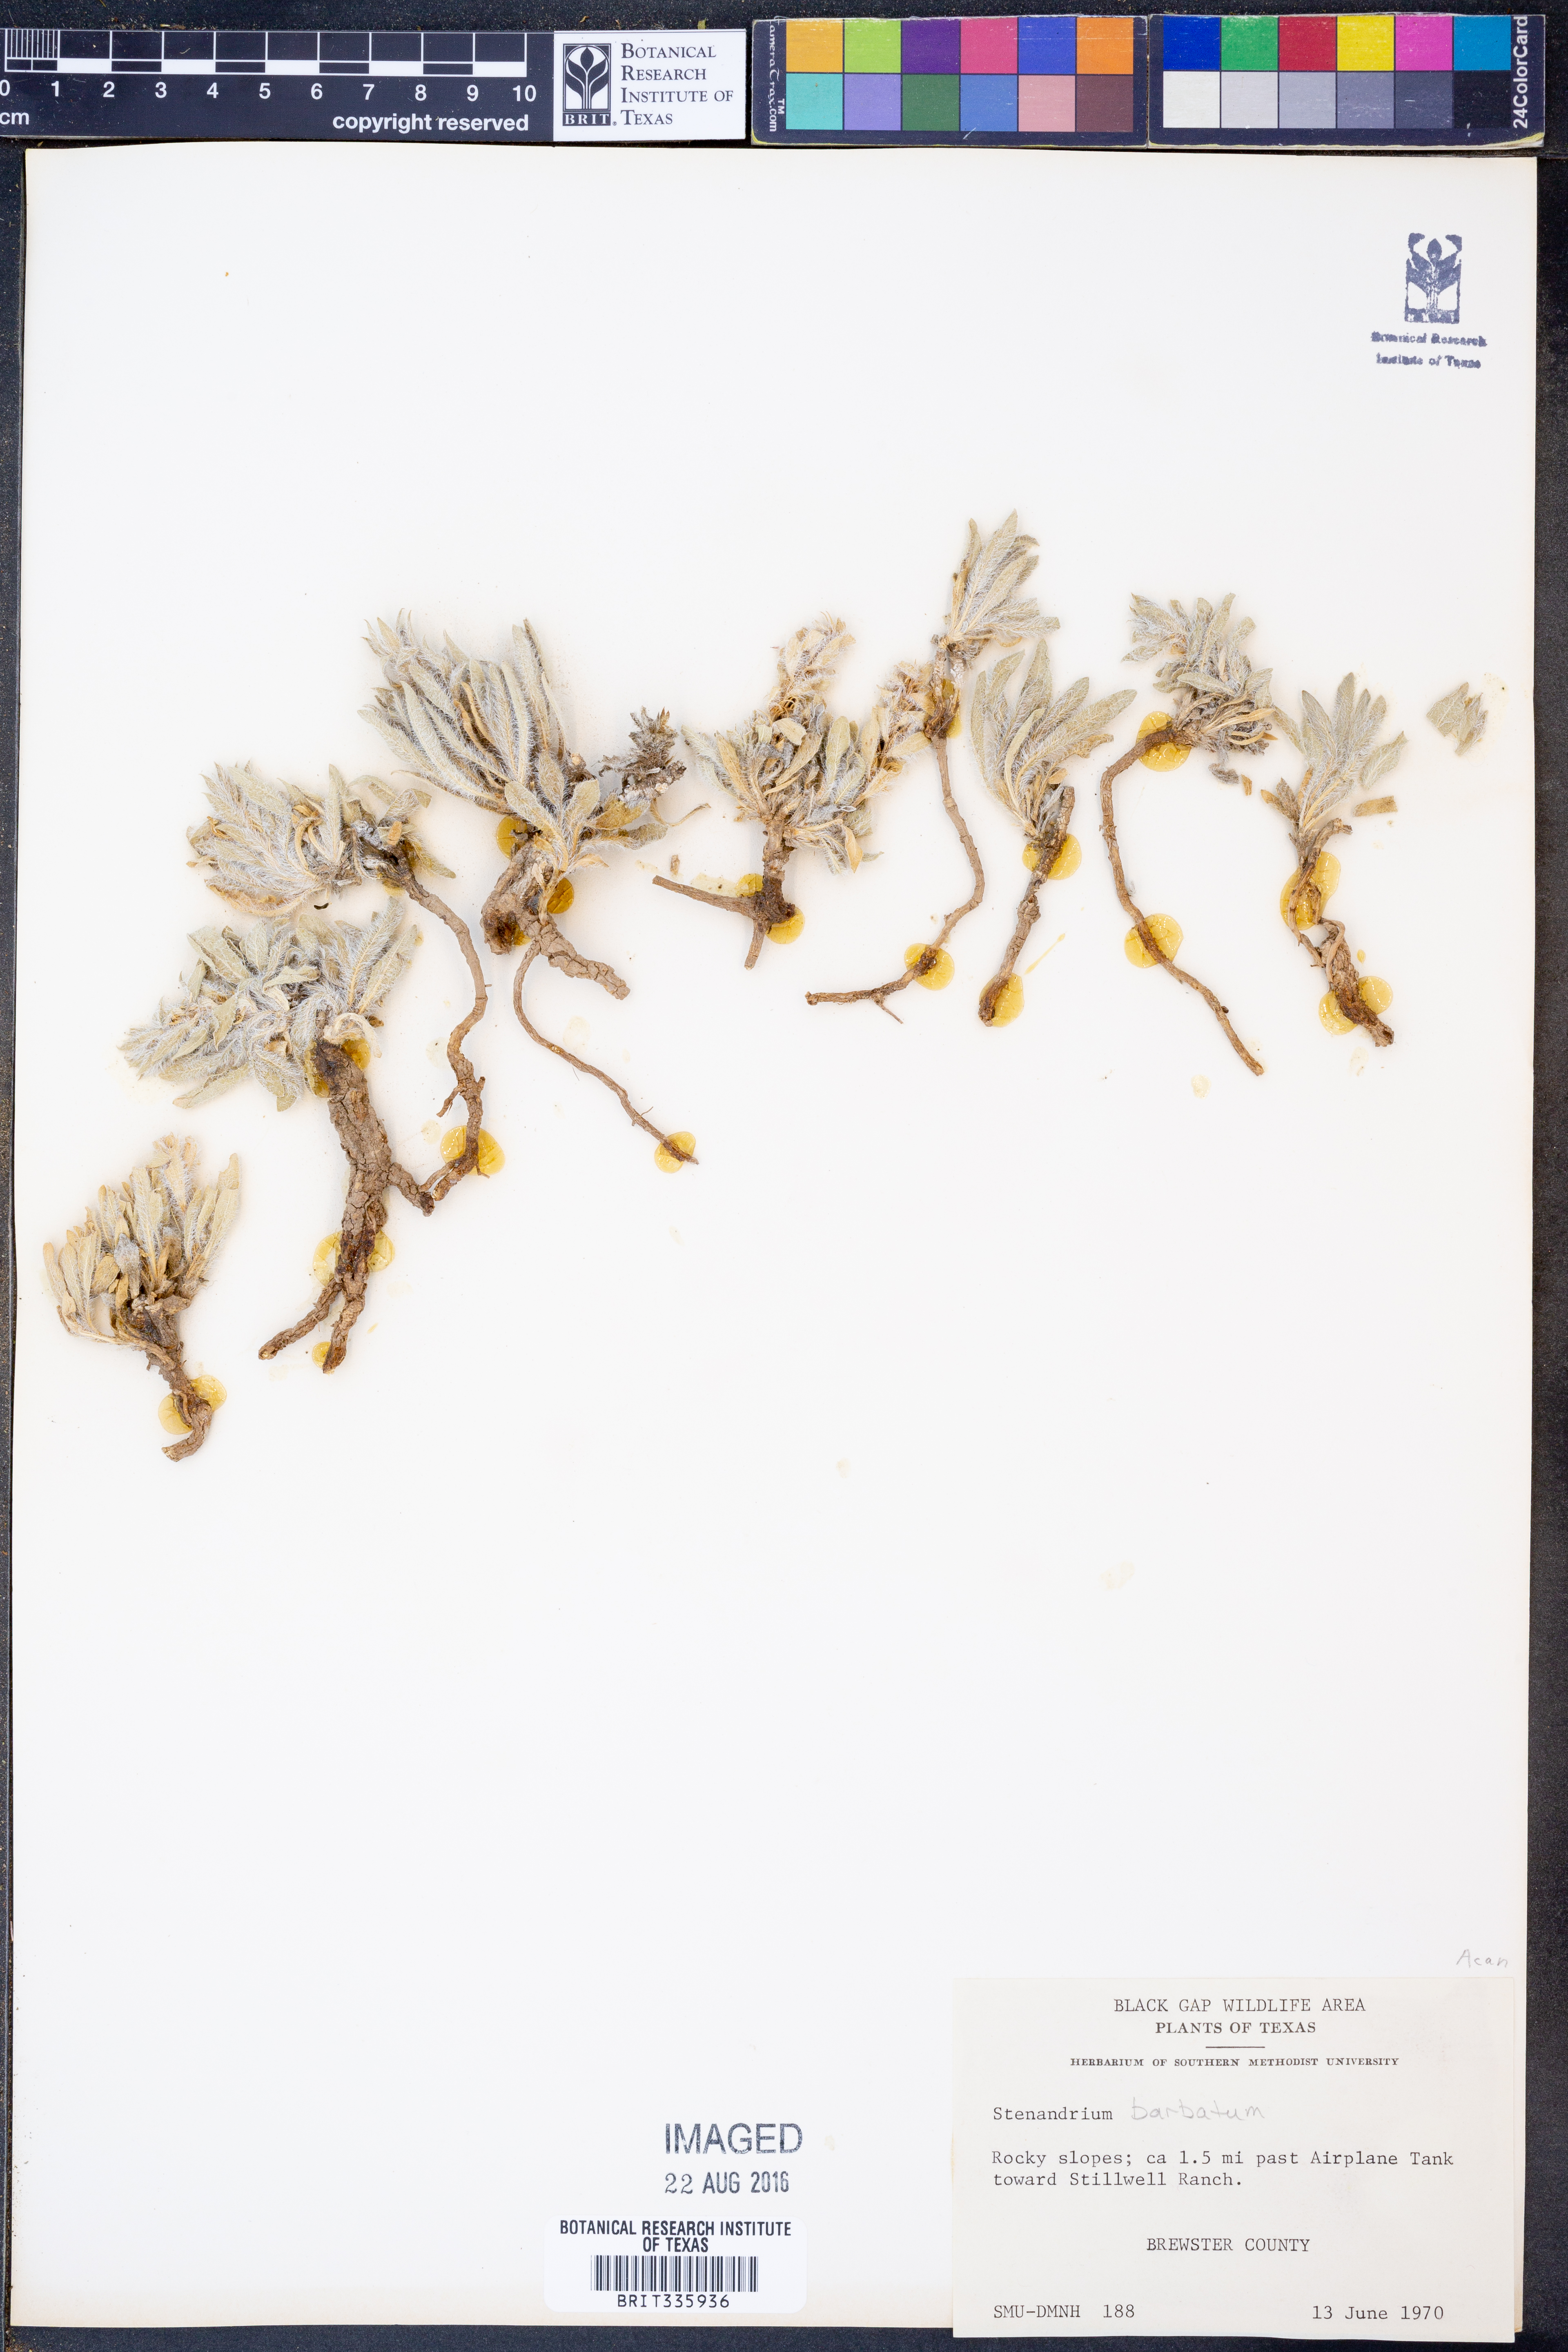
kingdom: Plantae
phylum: Tracheophyta
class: Magnoliopsida
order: Lamiales
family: Acanthaceae
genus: Stenandrium
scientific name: Stenandrium barbatum
